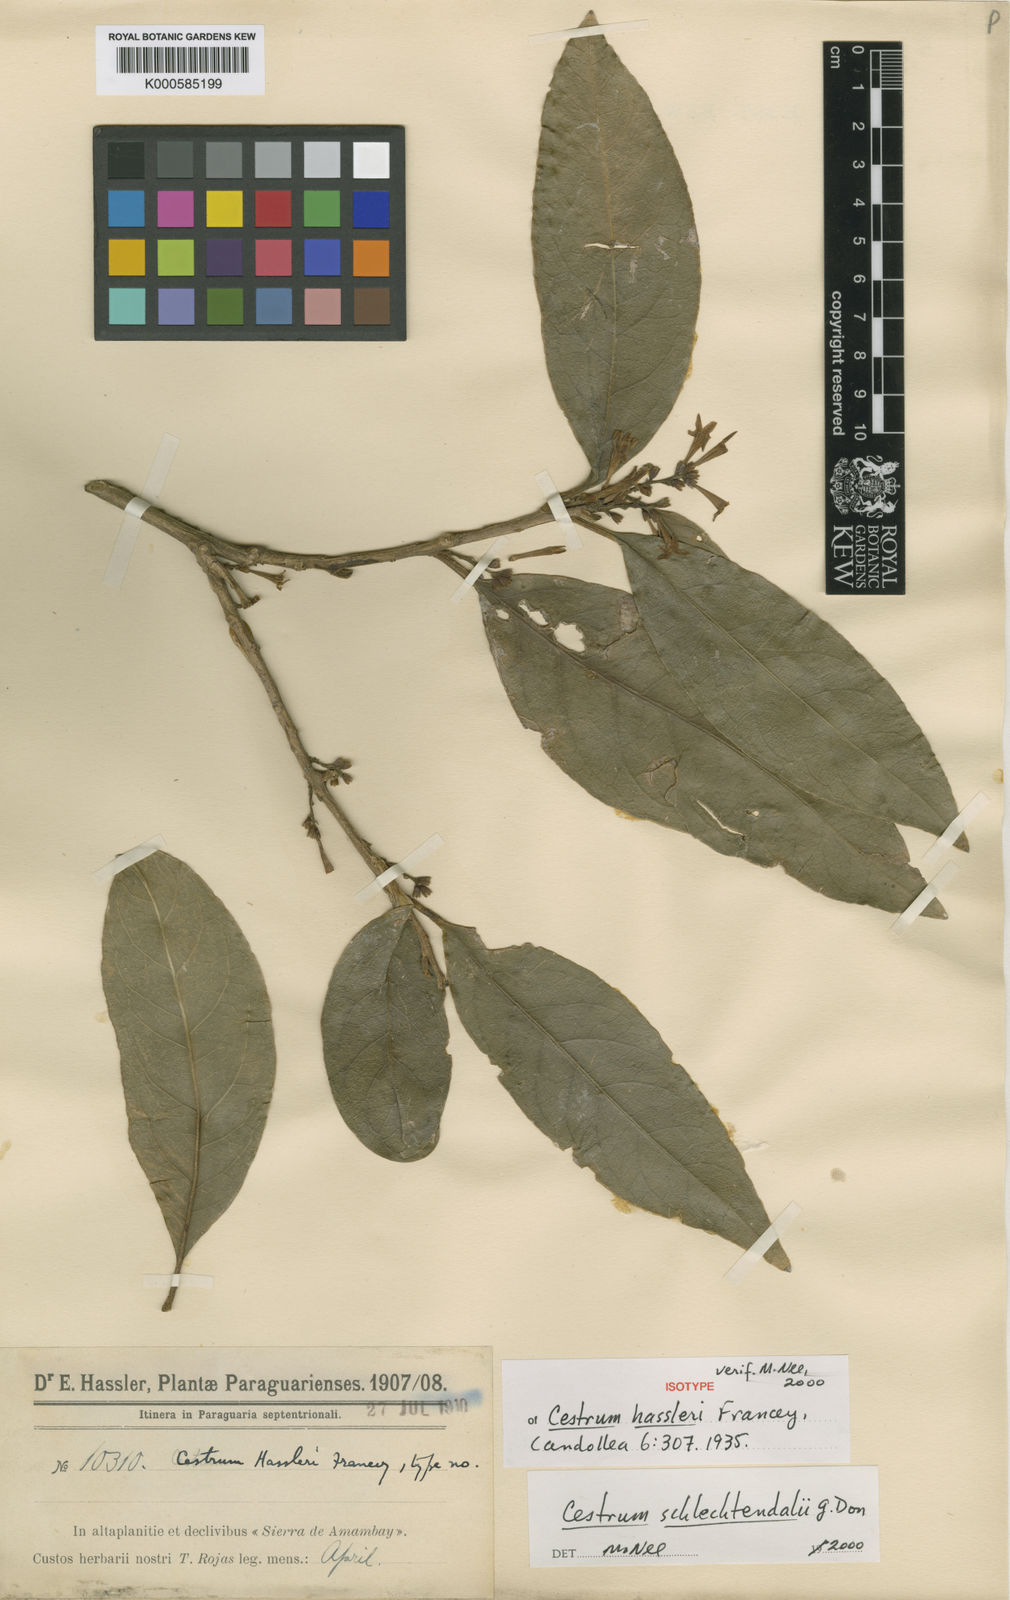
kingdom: Plantae
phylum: Tracheophyta
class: Magnoliopsida
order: Solanales
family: Solanaceae
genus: Cestrum
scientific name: Cestrum hassleri
